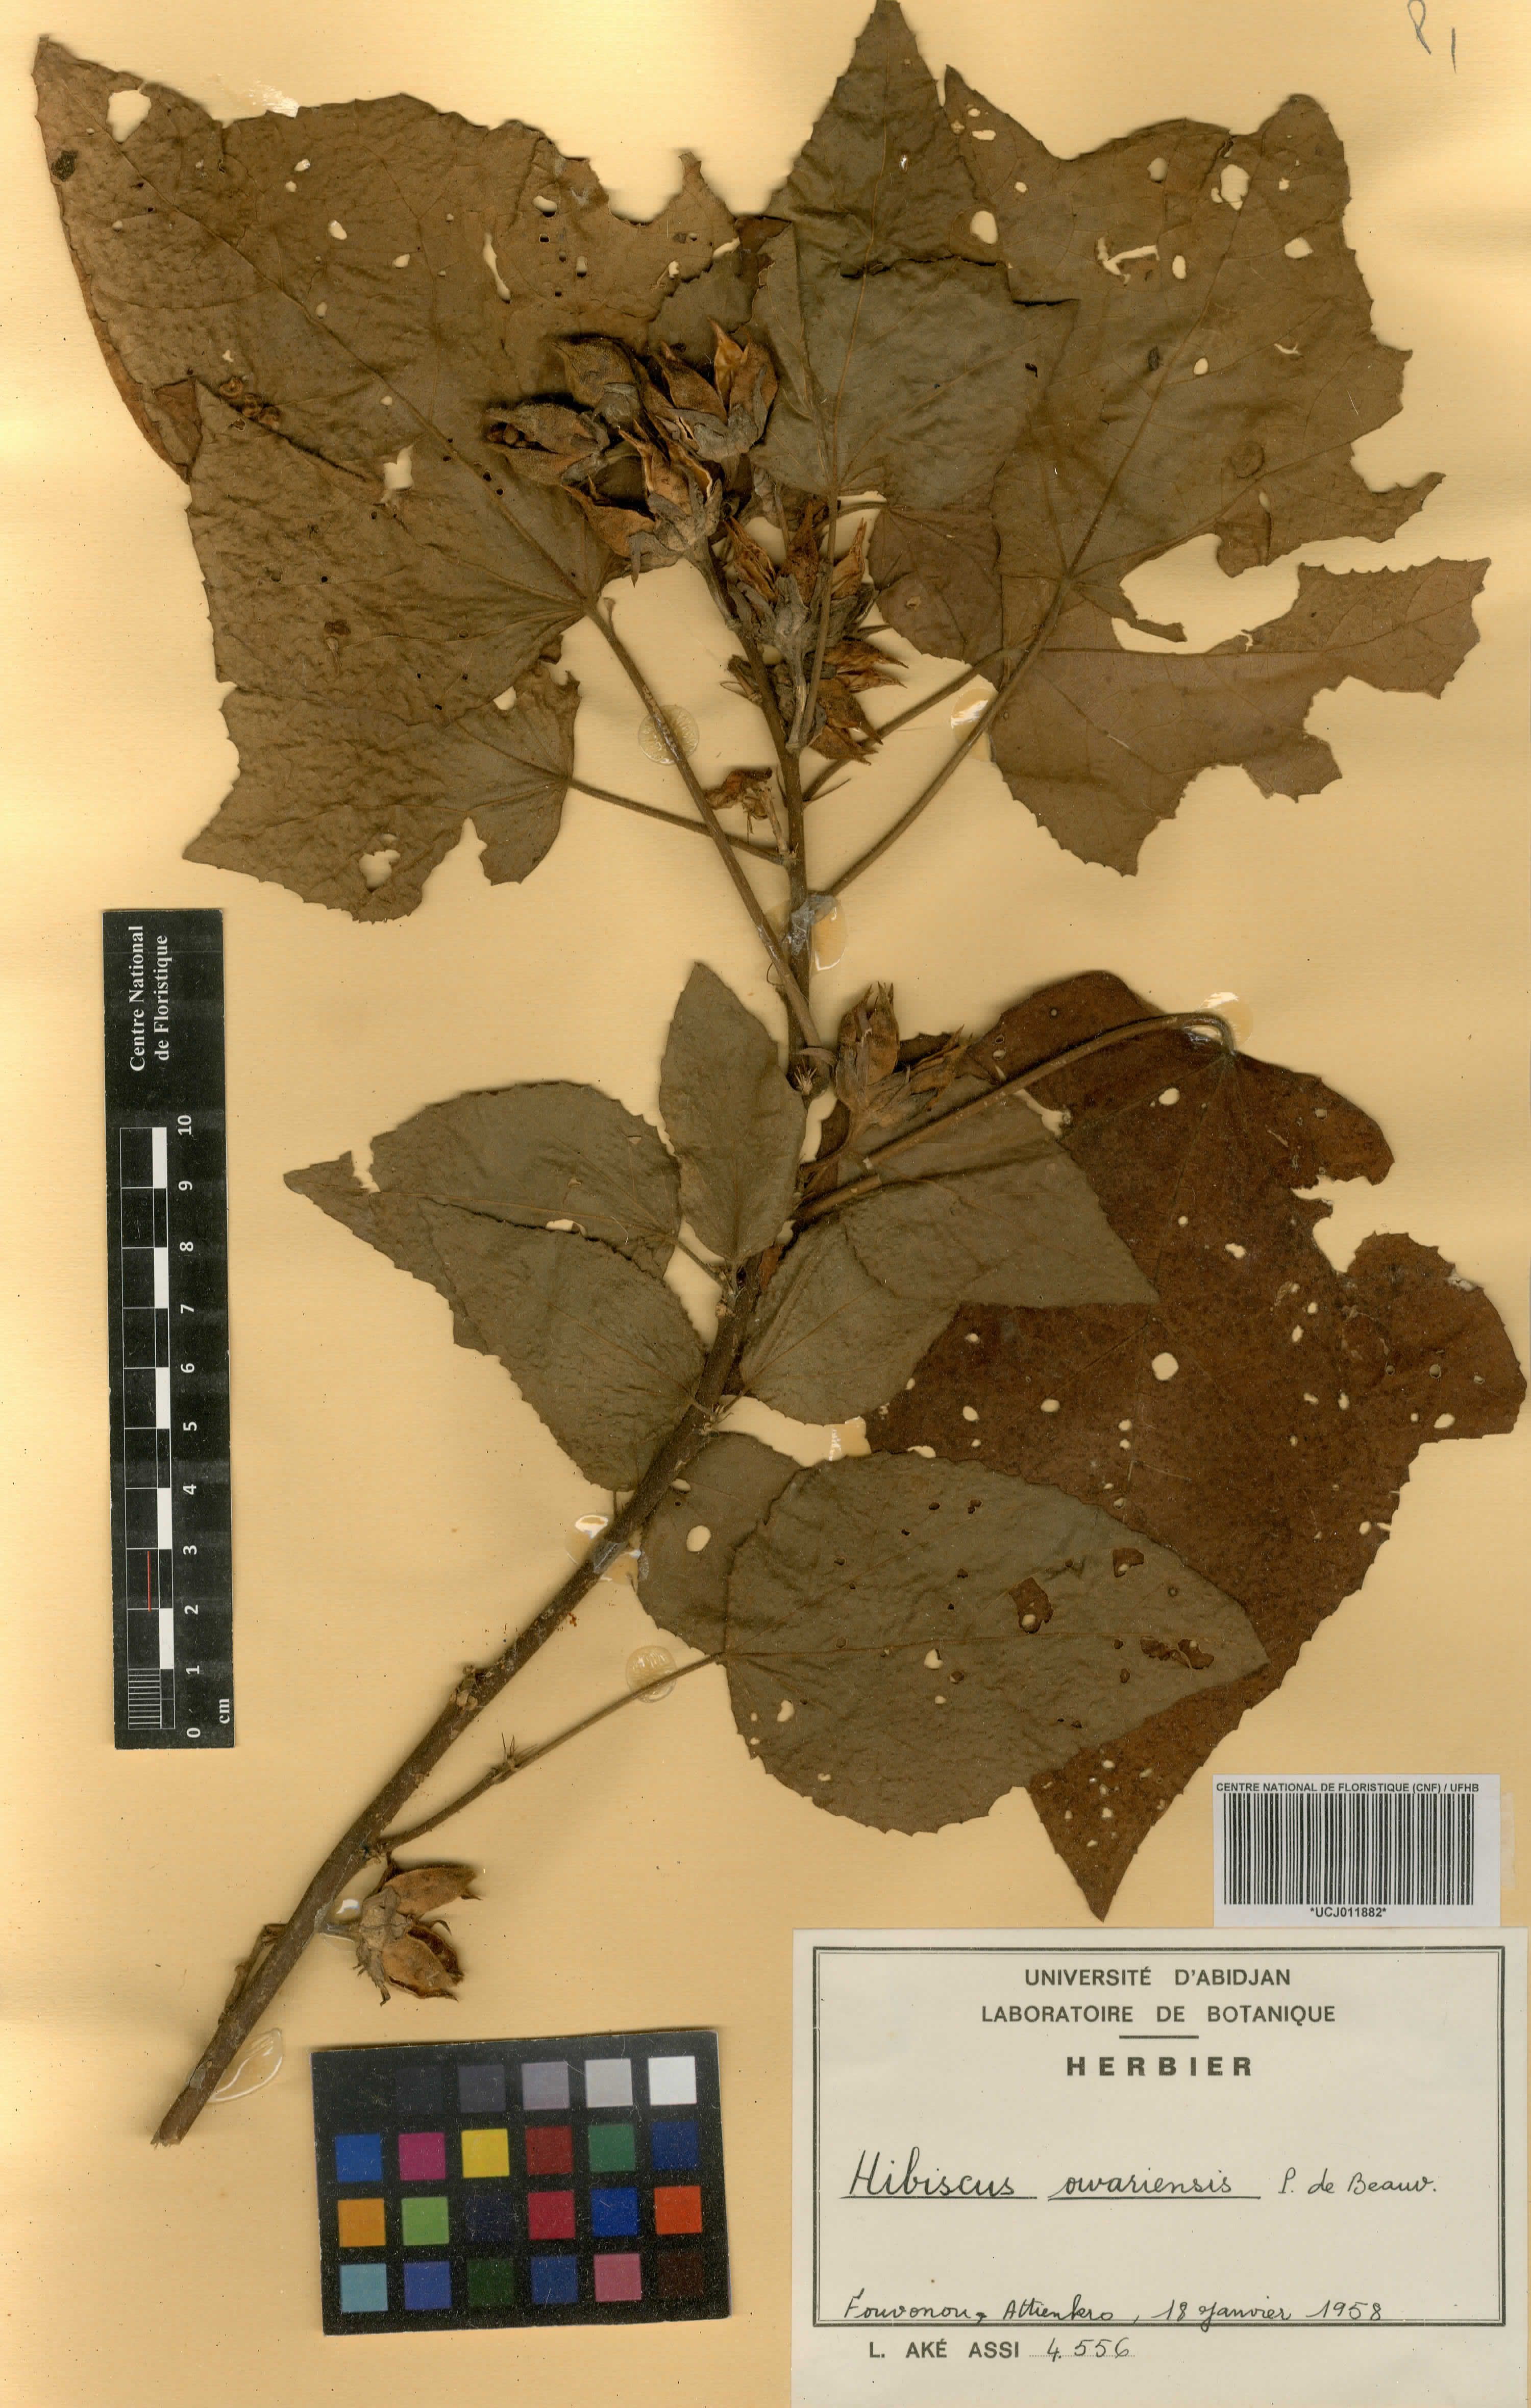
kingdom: Plantae
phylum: Tracheophyta
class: Magnoliopsida
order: Malvales
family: Malvaceae
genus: Hibiscus
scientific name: Hibiscus owariensis
